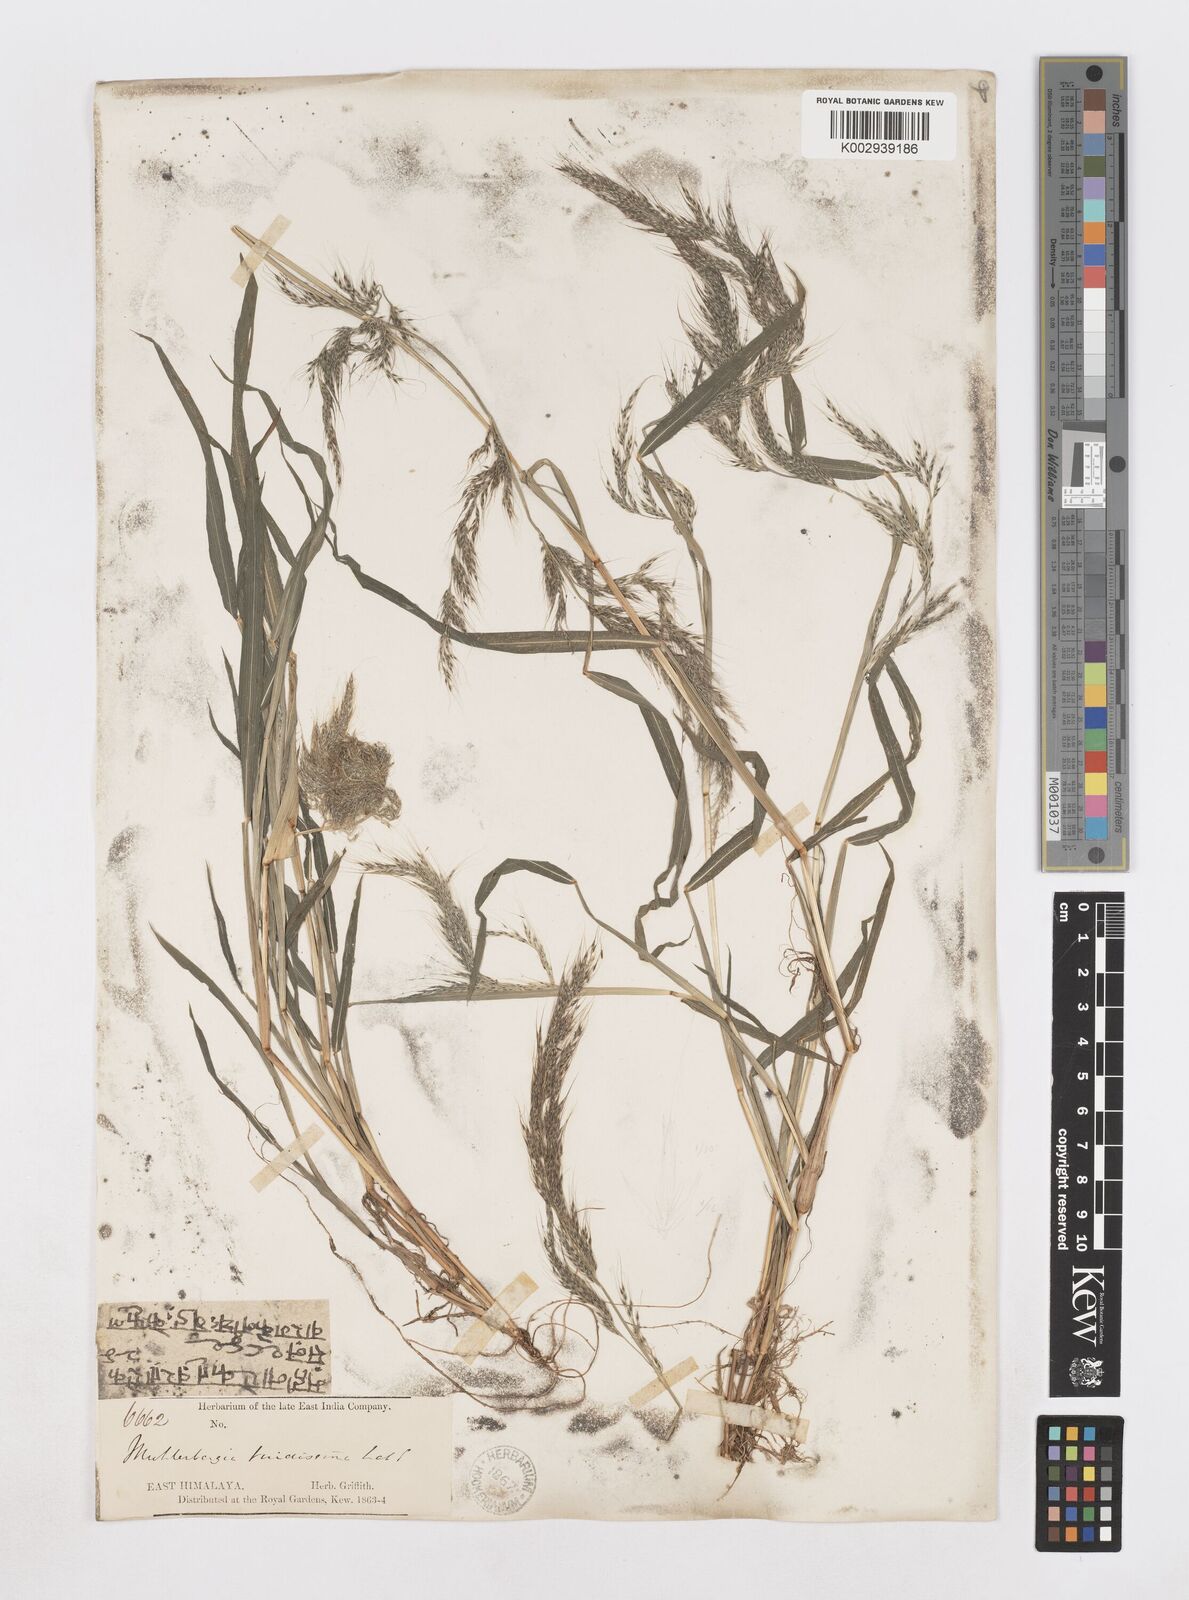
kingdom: Plantae
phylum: Tracheophyta
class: Liliopsida
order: Poales
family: Poaceae
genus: Muhlenbergia
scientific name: Muhlenbergia huegelii
